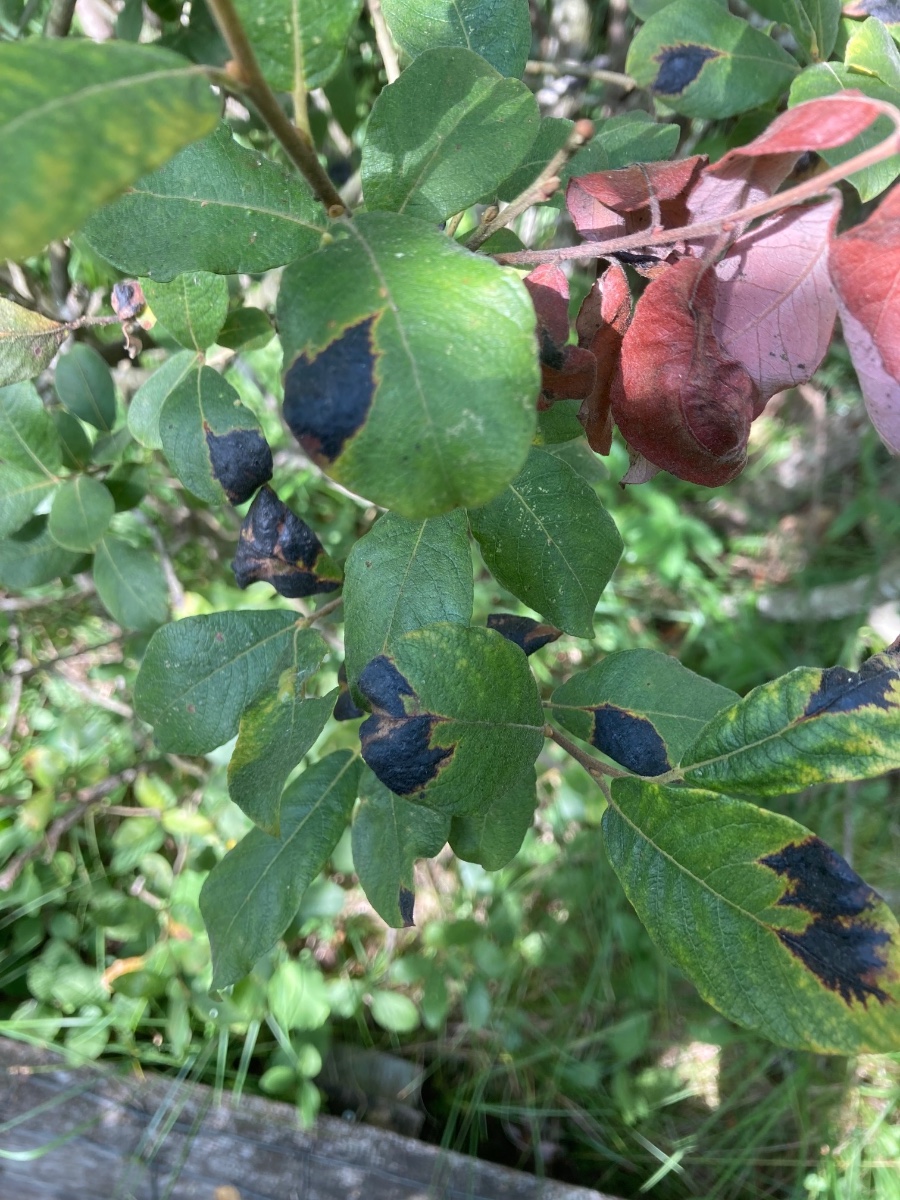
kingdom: Fungi
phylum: Ascomycota
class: Leotiomycetes
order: Rhytismatales
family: Rhytismataceae
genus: Rhytisma
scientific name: Rhytisma salicinum
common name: pile-rynkeplet
